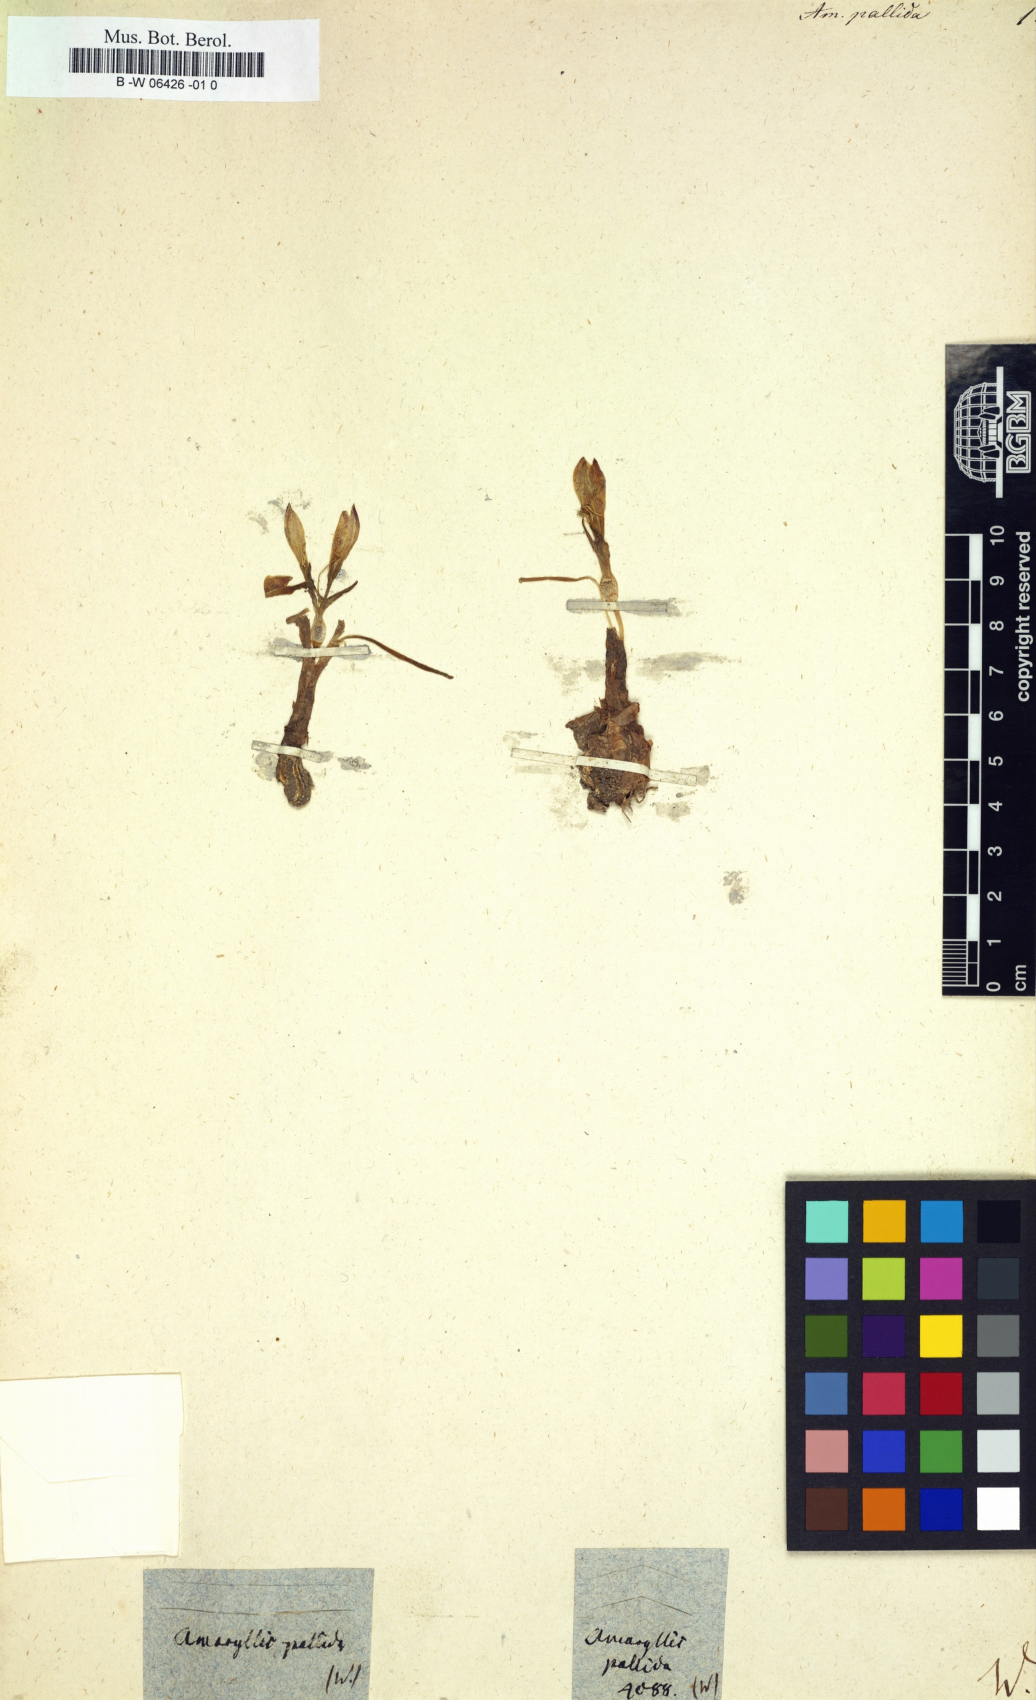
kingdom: Plantae
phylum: Tracheophyta
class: Liliopsida
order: Asparagales
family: Amaryllidaceae
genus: Amaryllis
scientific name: Amaryllis pallida
